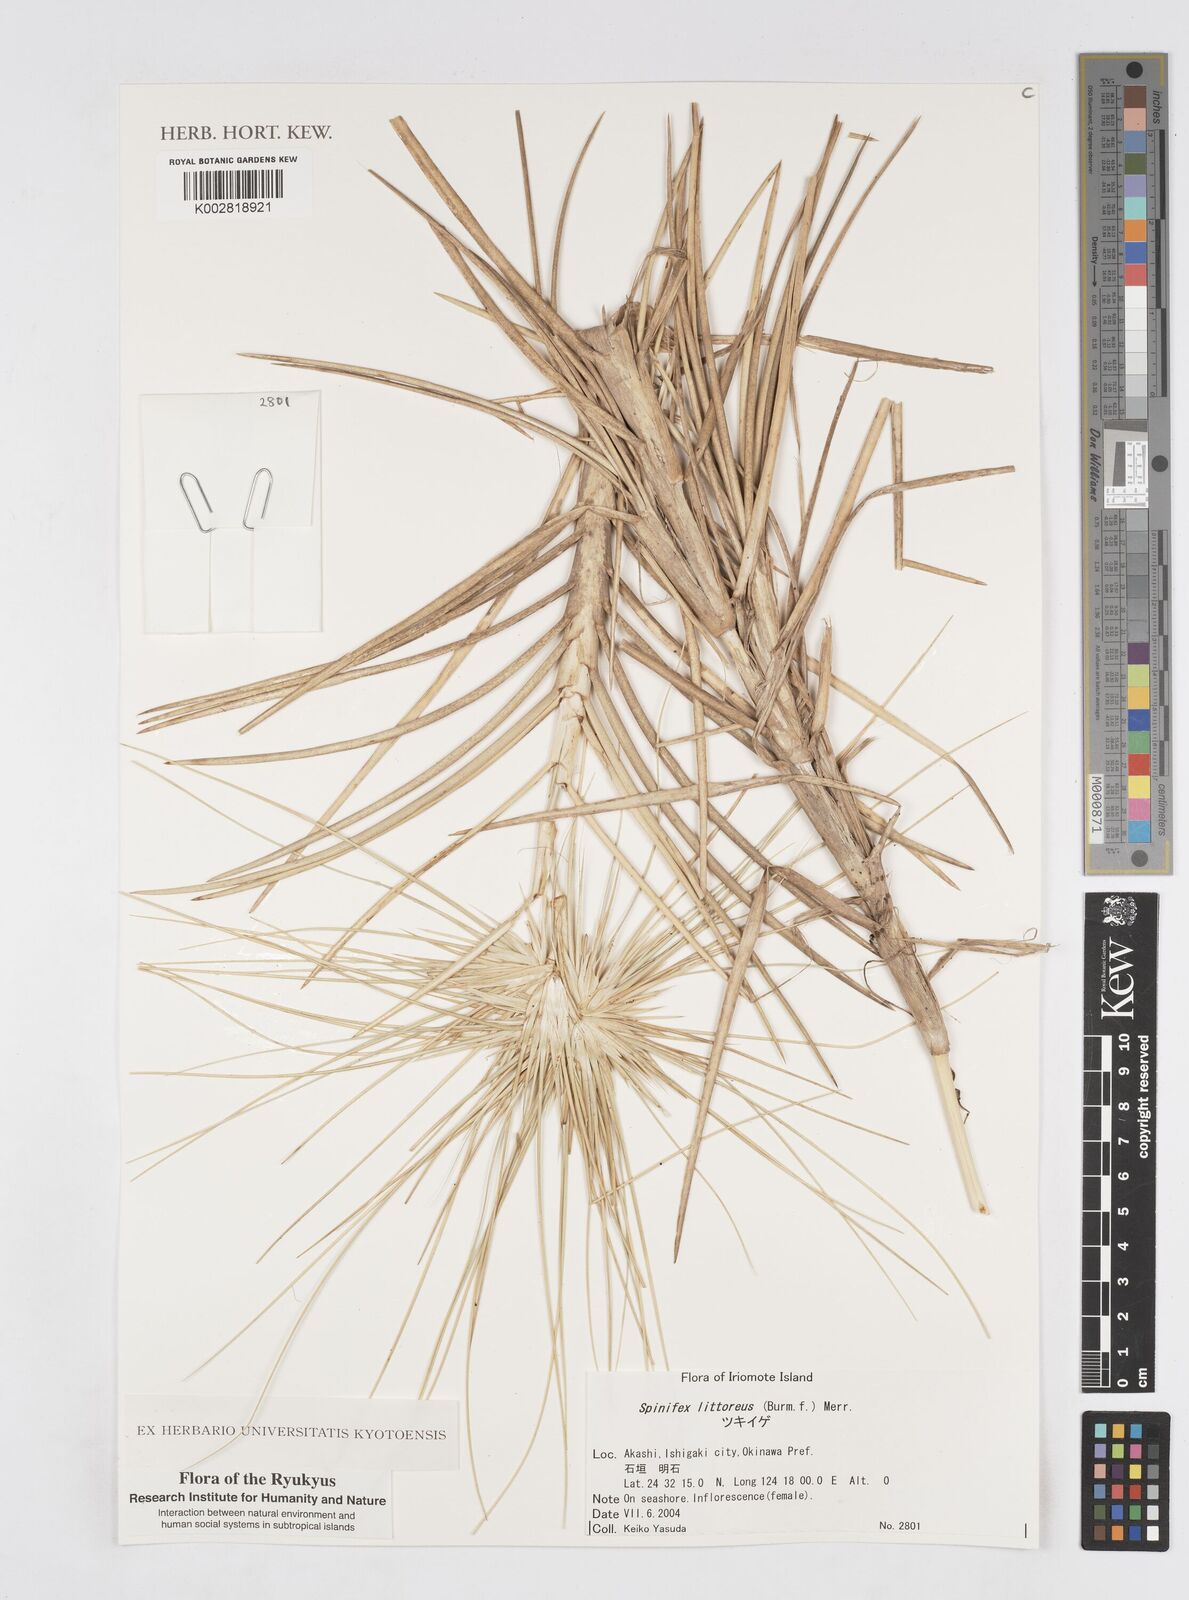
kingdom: Plantae
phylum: Tracheophyta
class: Liliopsida
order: Poales
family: Poaceae
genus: Spinifex
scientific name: Spinifex littoreus
